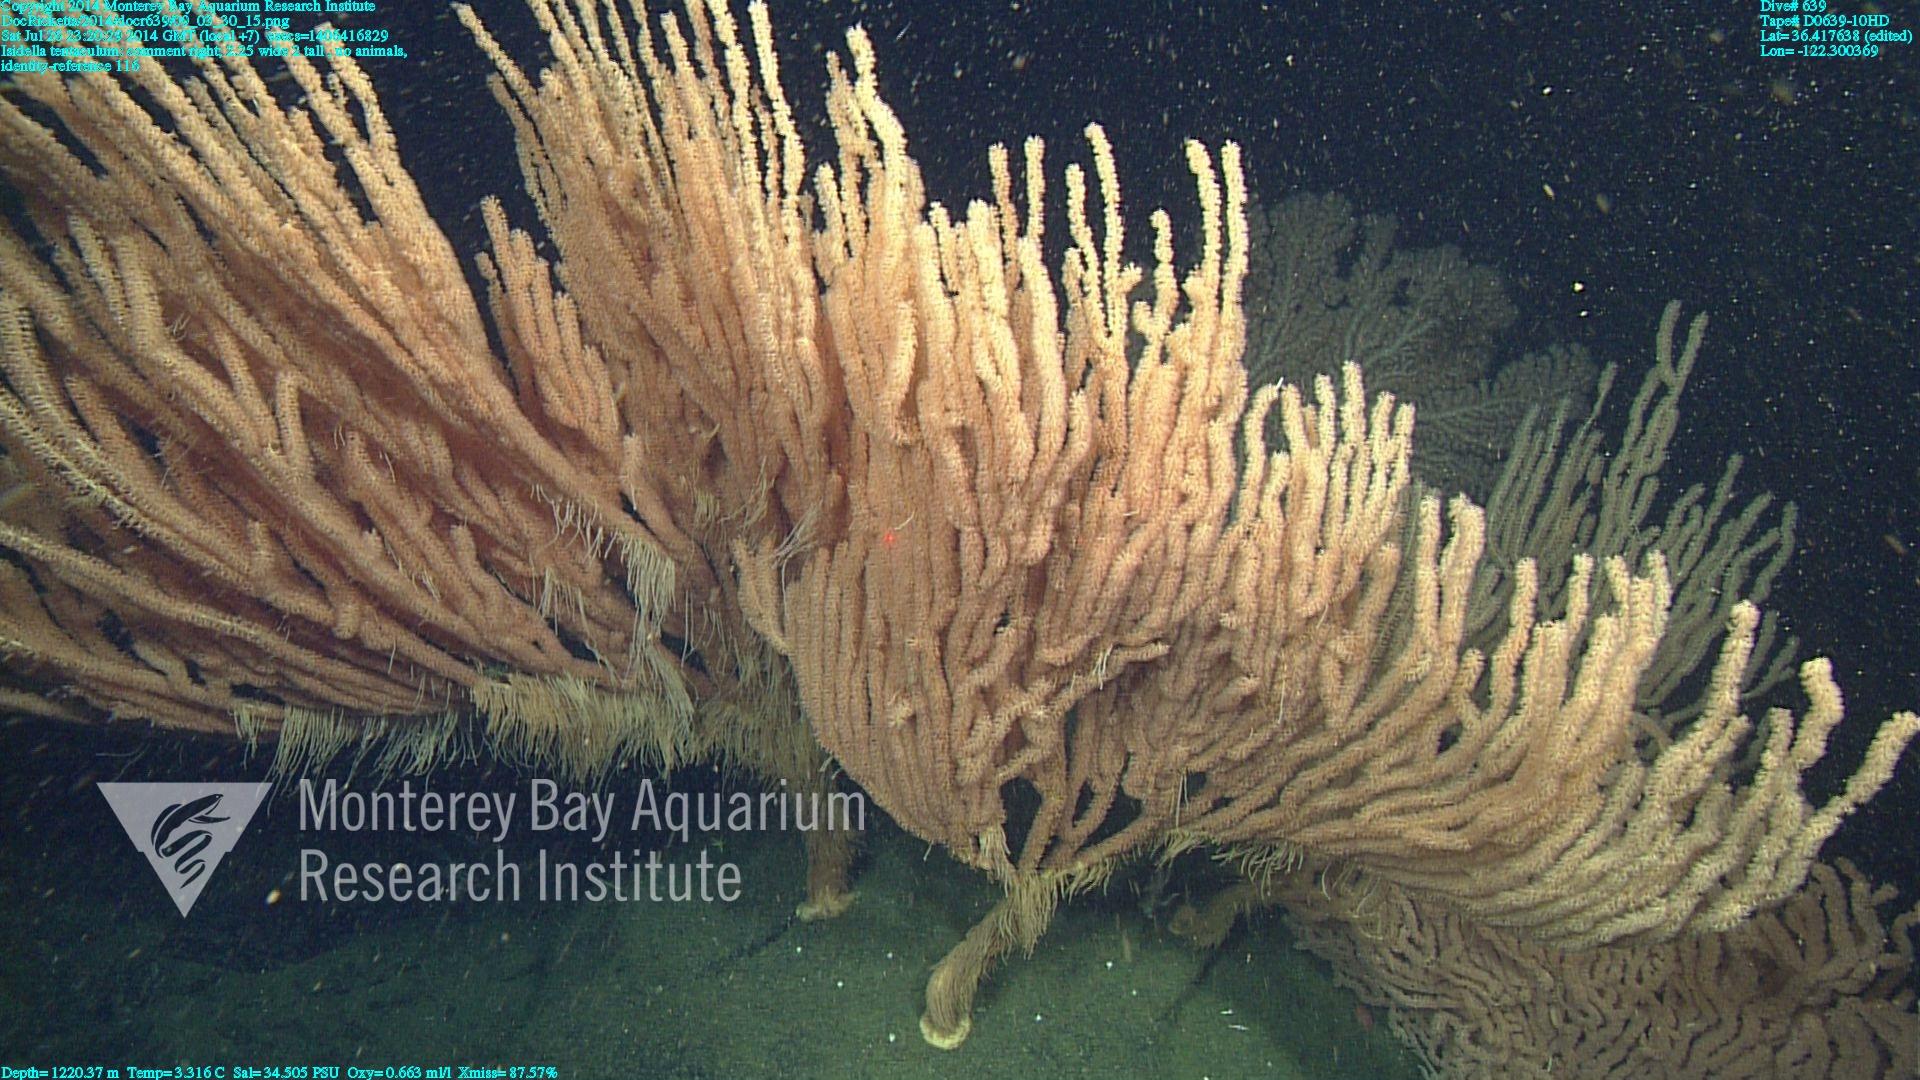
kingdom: Animalia
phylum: Cnidaria
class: Anthozoa
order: Scleralcyonacea
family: Keratoisididae
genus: Isidella
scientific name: Isidella tentaculum
